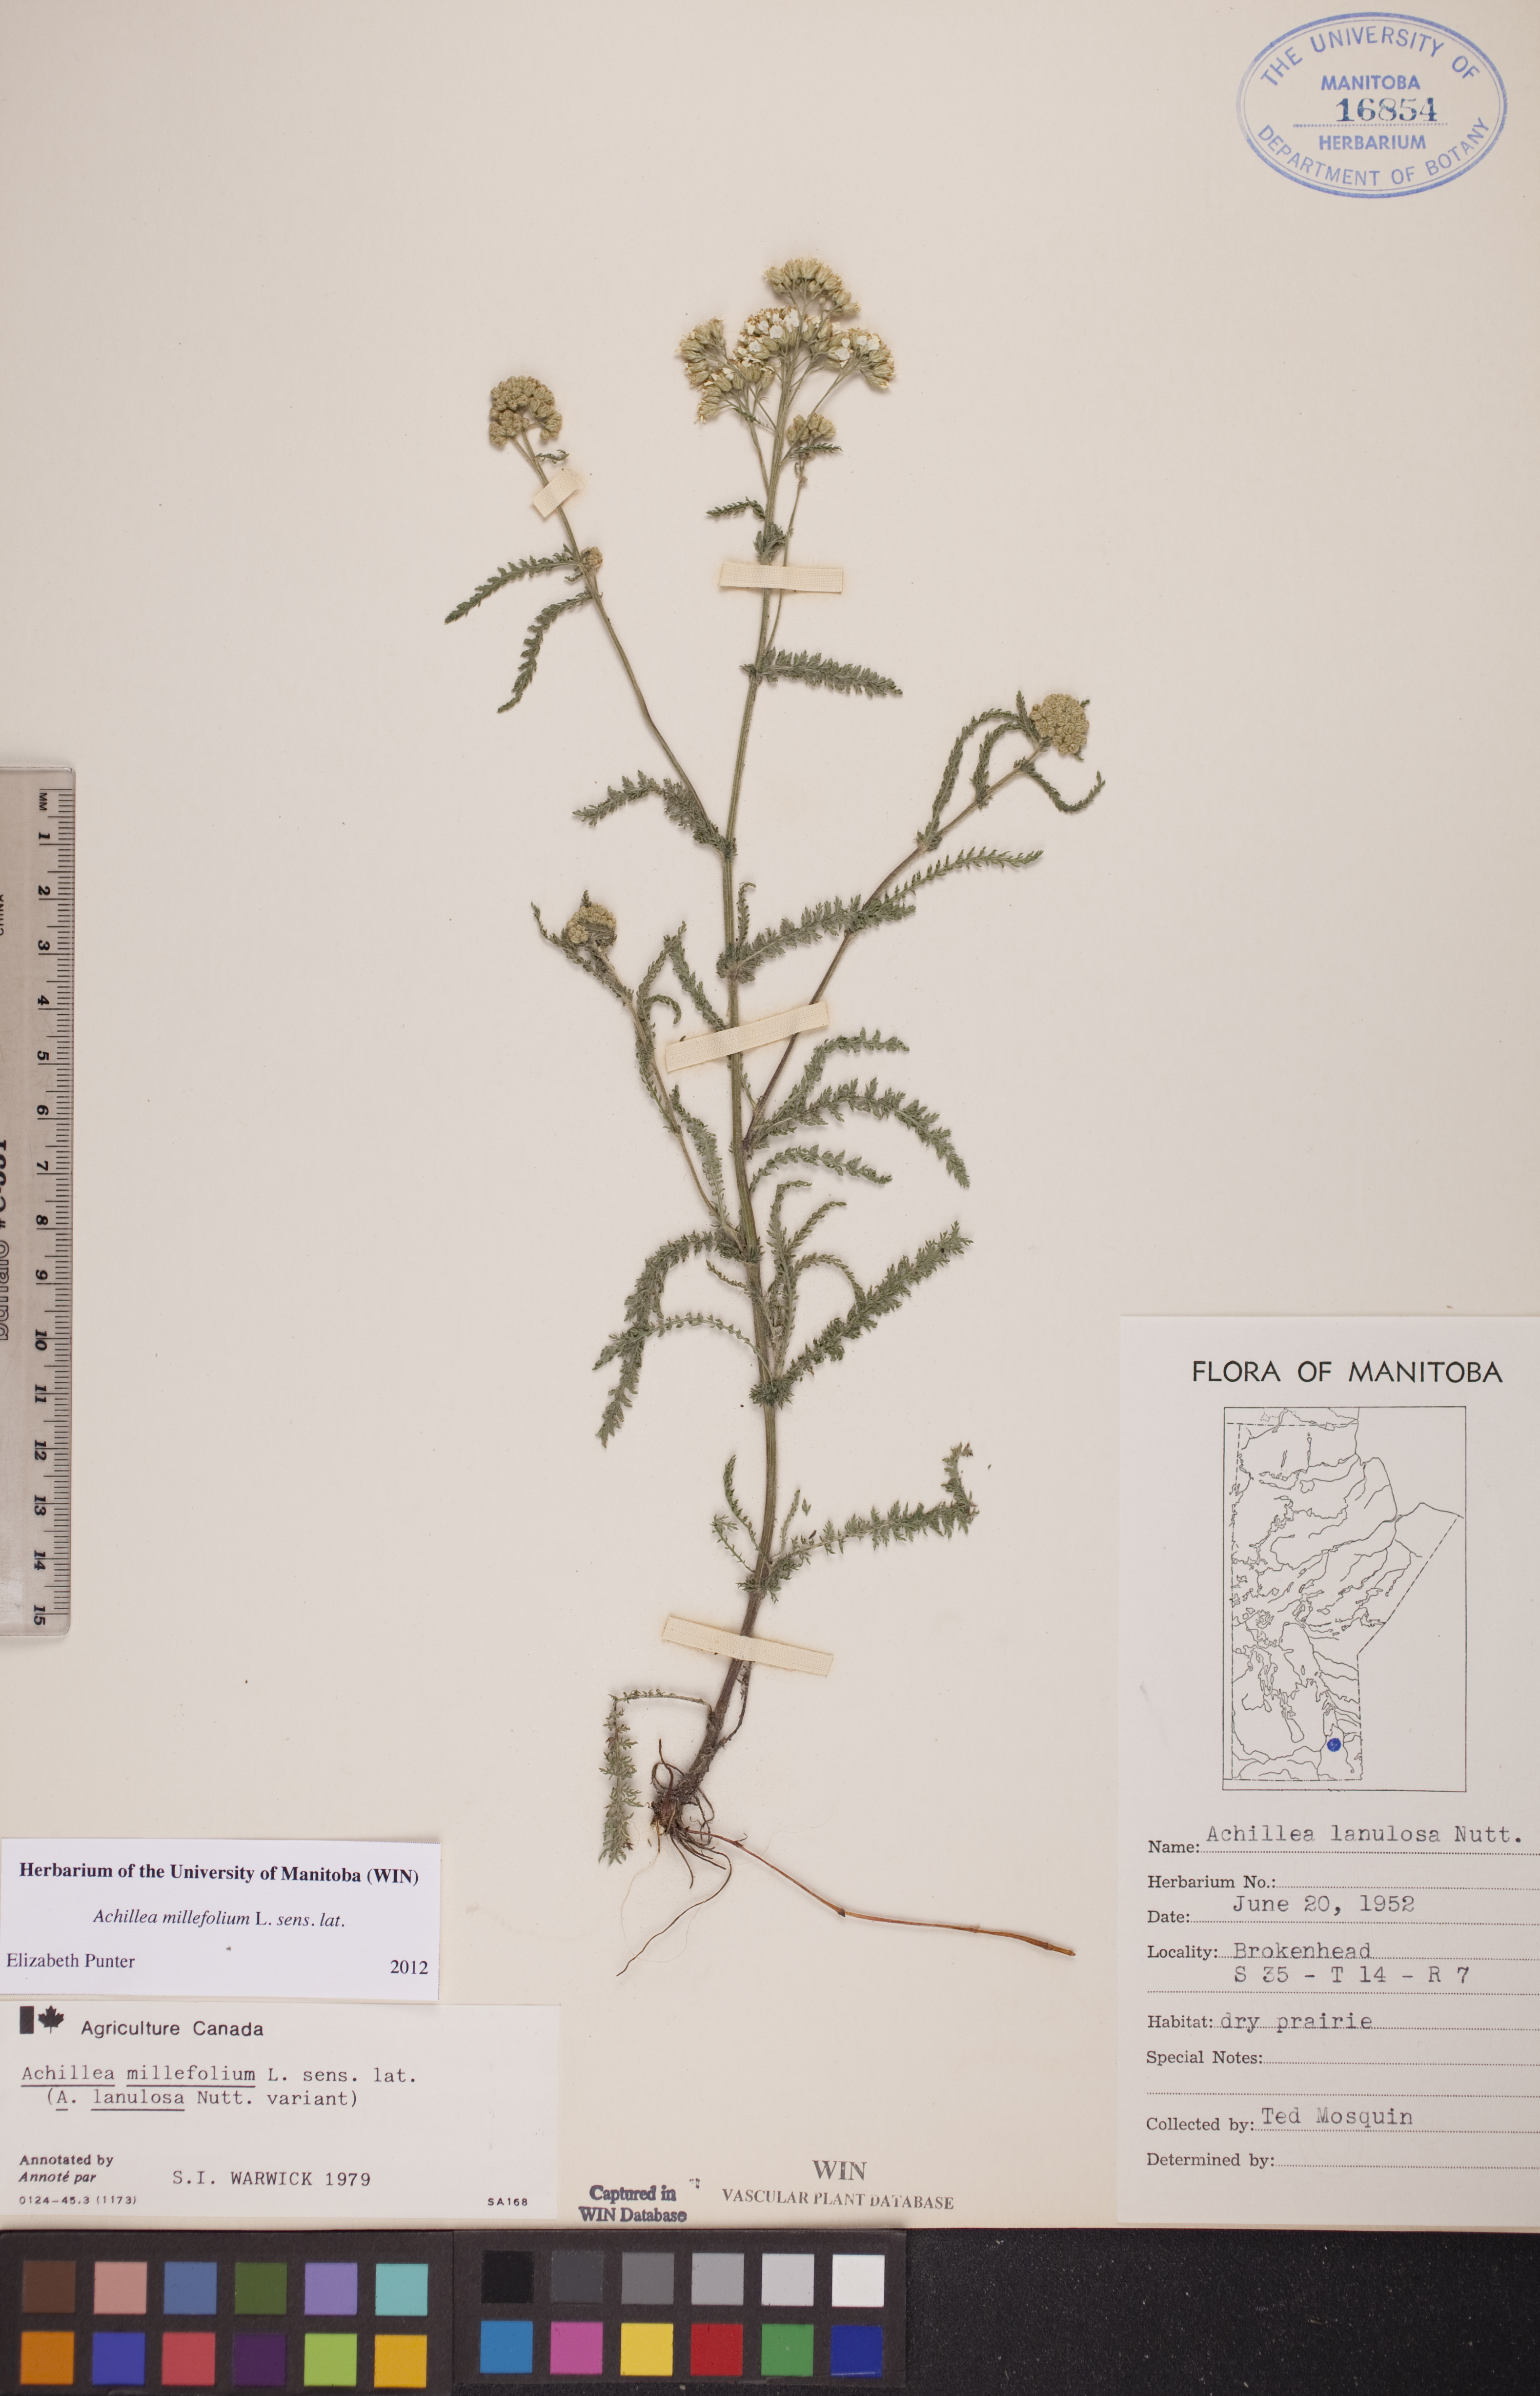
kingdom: Plantae
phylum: Tracheophyta
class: Magnoliopsida
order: Asterales
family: Asteraceae
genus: Achillea
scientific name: Achillea millefolium
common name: Yarrow
